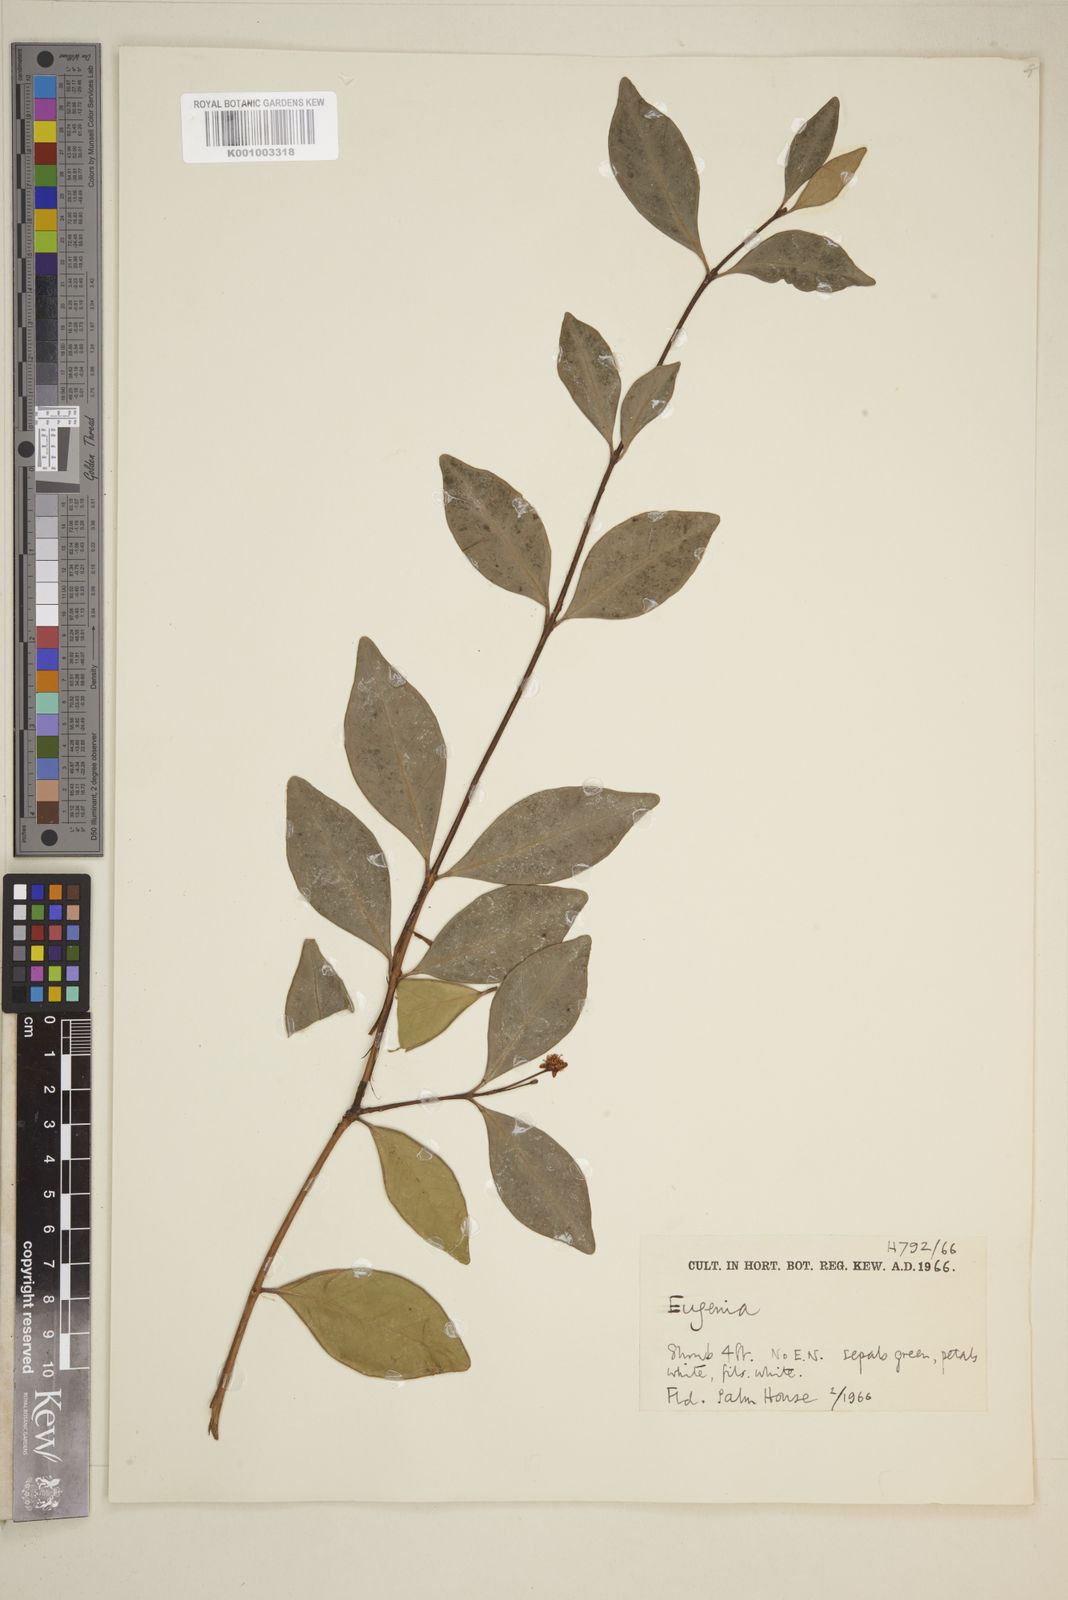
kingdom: Plantae
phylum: Tracheophyta
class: Magnoliopsida
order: Myrtales
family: Myrtaceae
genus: Eugenia
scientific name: Eugenia
